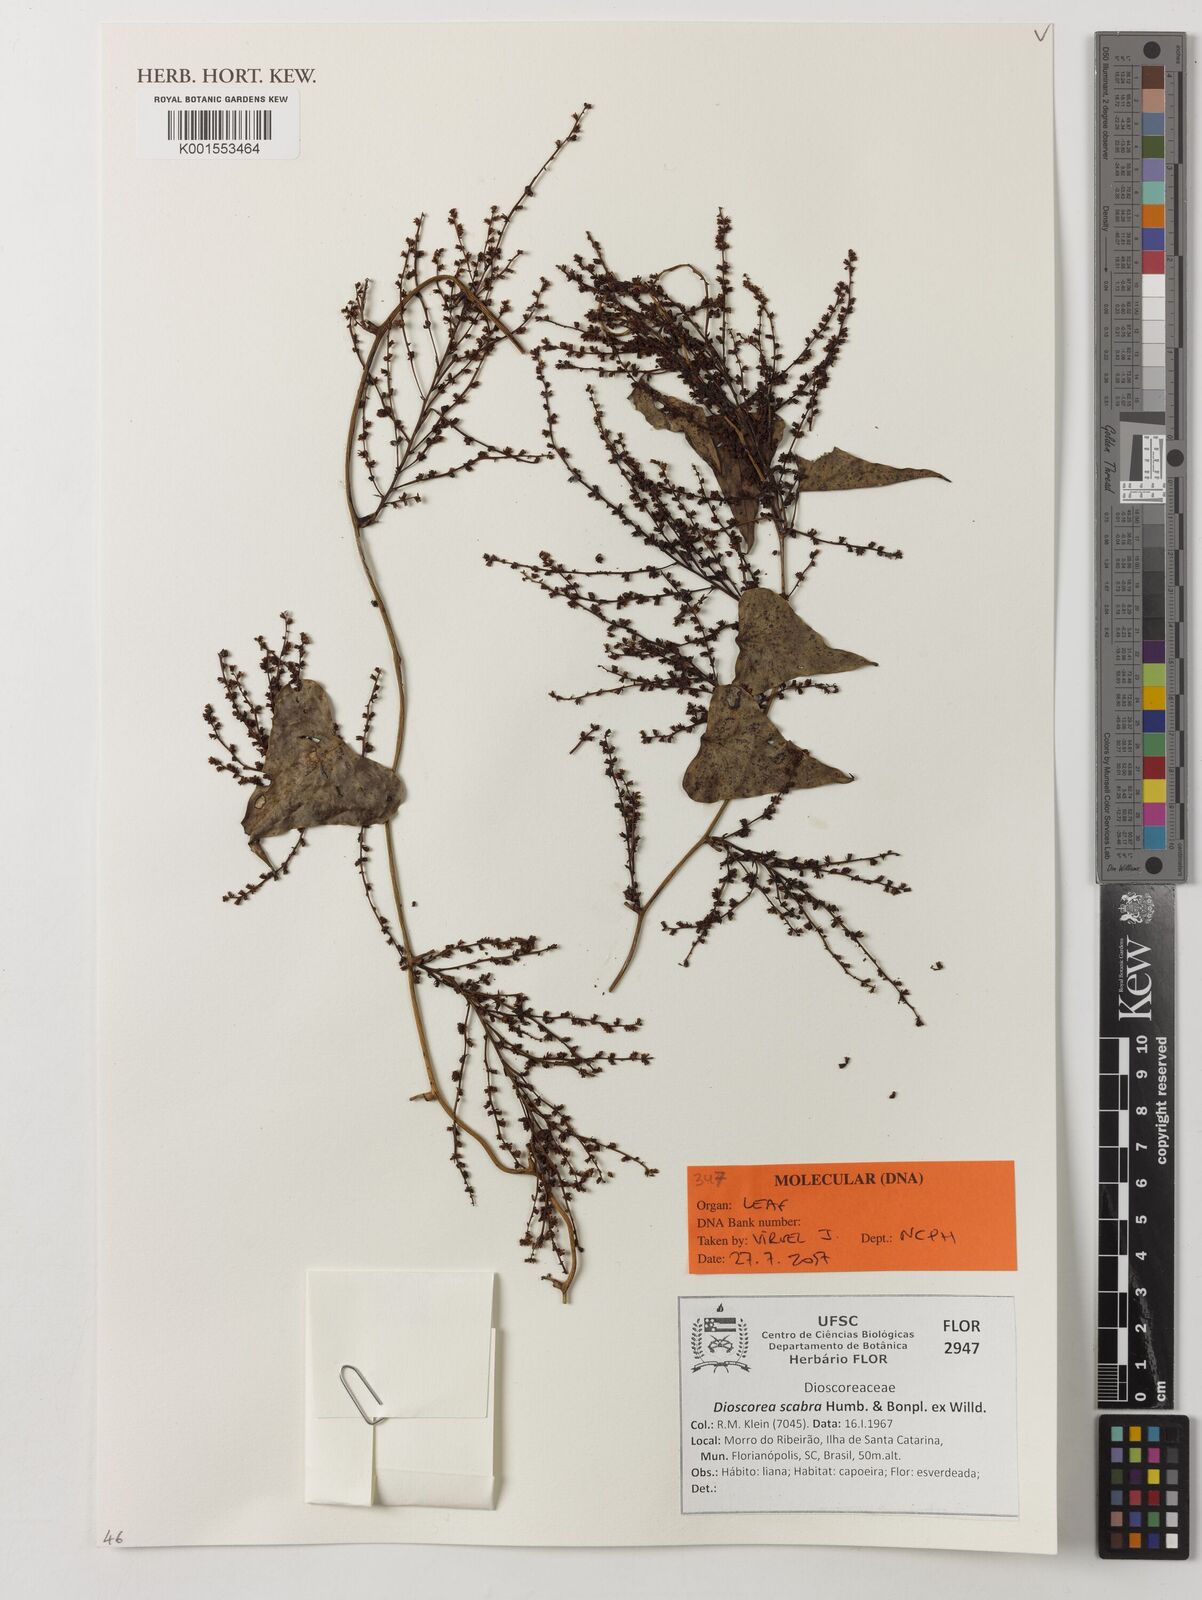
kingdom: Plantae
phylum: Tracheophyta
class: Liliopsida
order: Dioscoreales
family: Dioscoreaceae
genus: Dioscorea
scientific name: Dioscorea scabra
